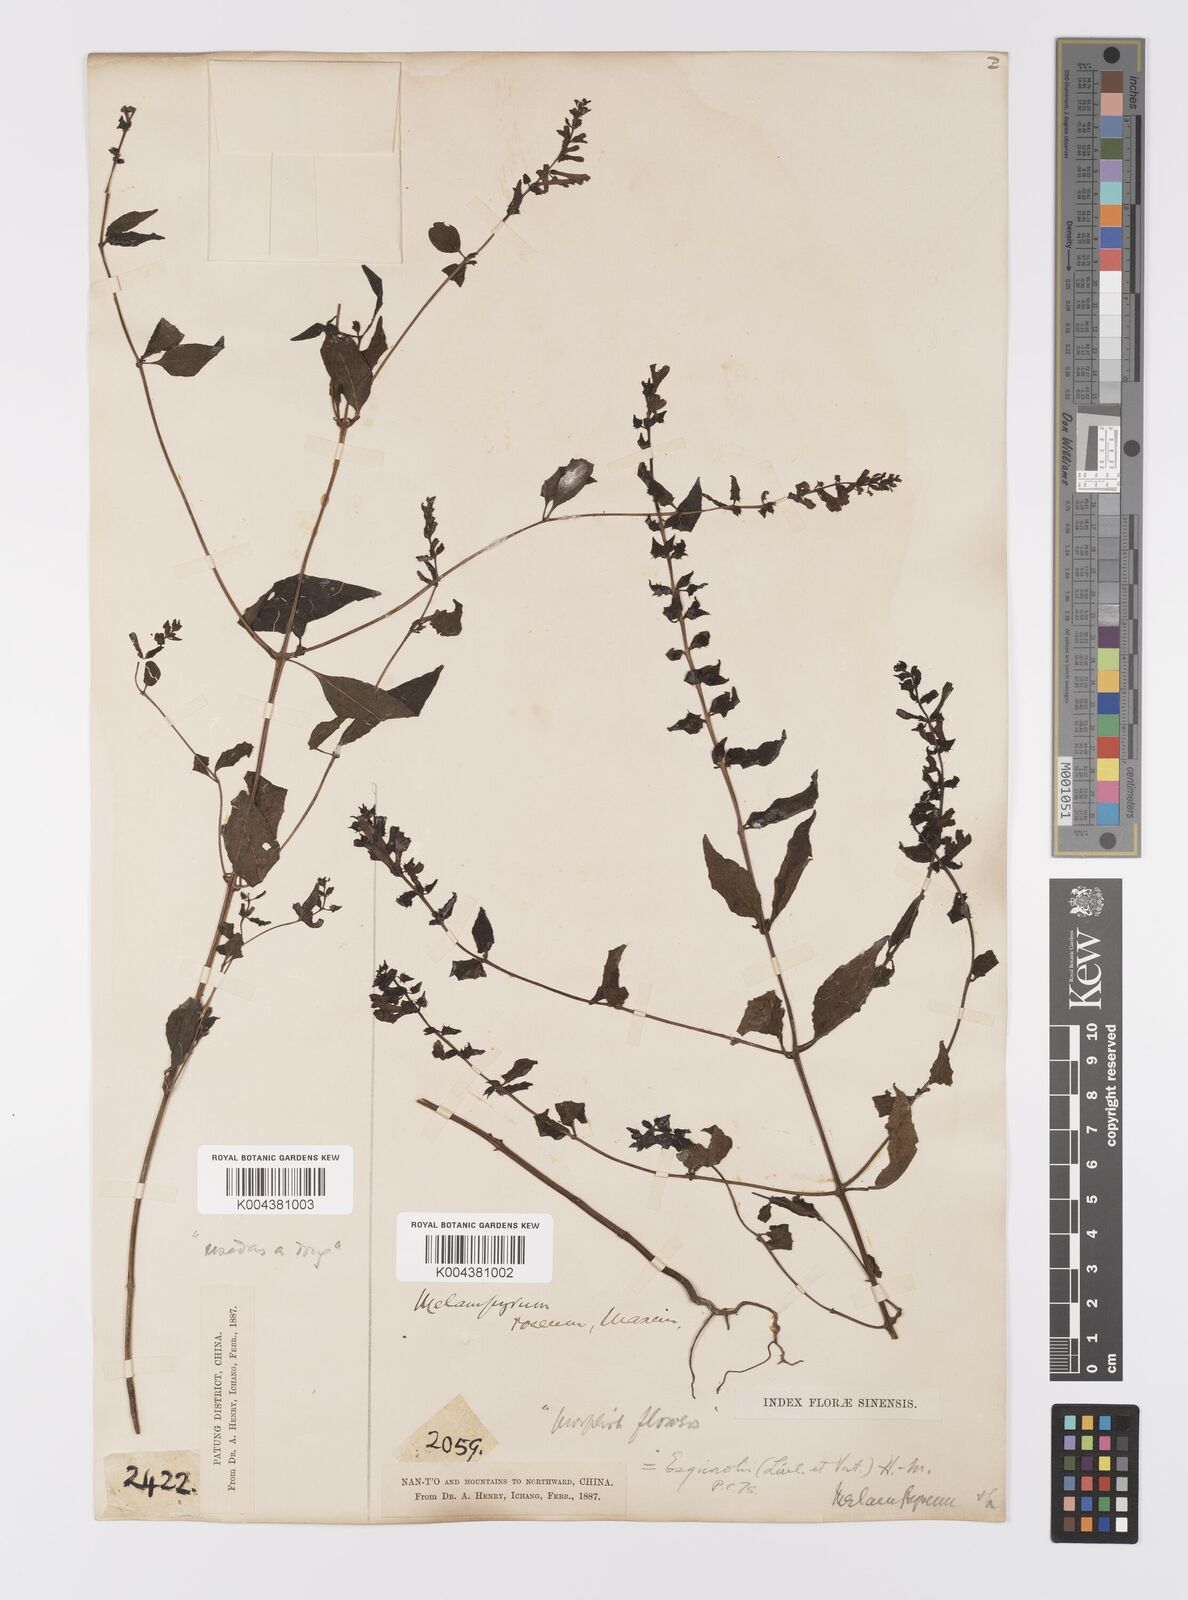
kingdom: Plantae
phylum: Tracheophyta
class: Magnoliopsida
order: Lamiales
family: Orobanchaceae
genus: Melampyrum
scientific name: Melampyrum roseum
